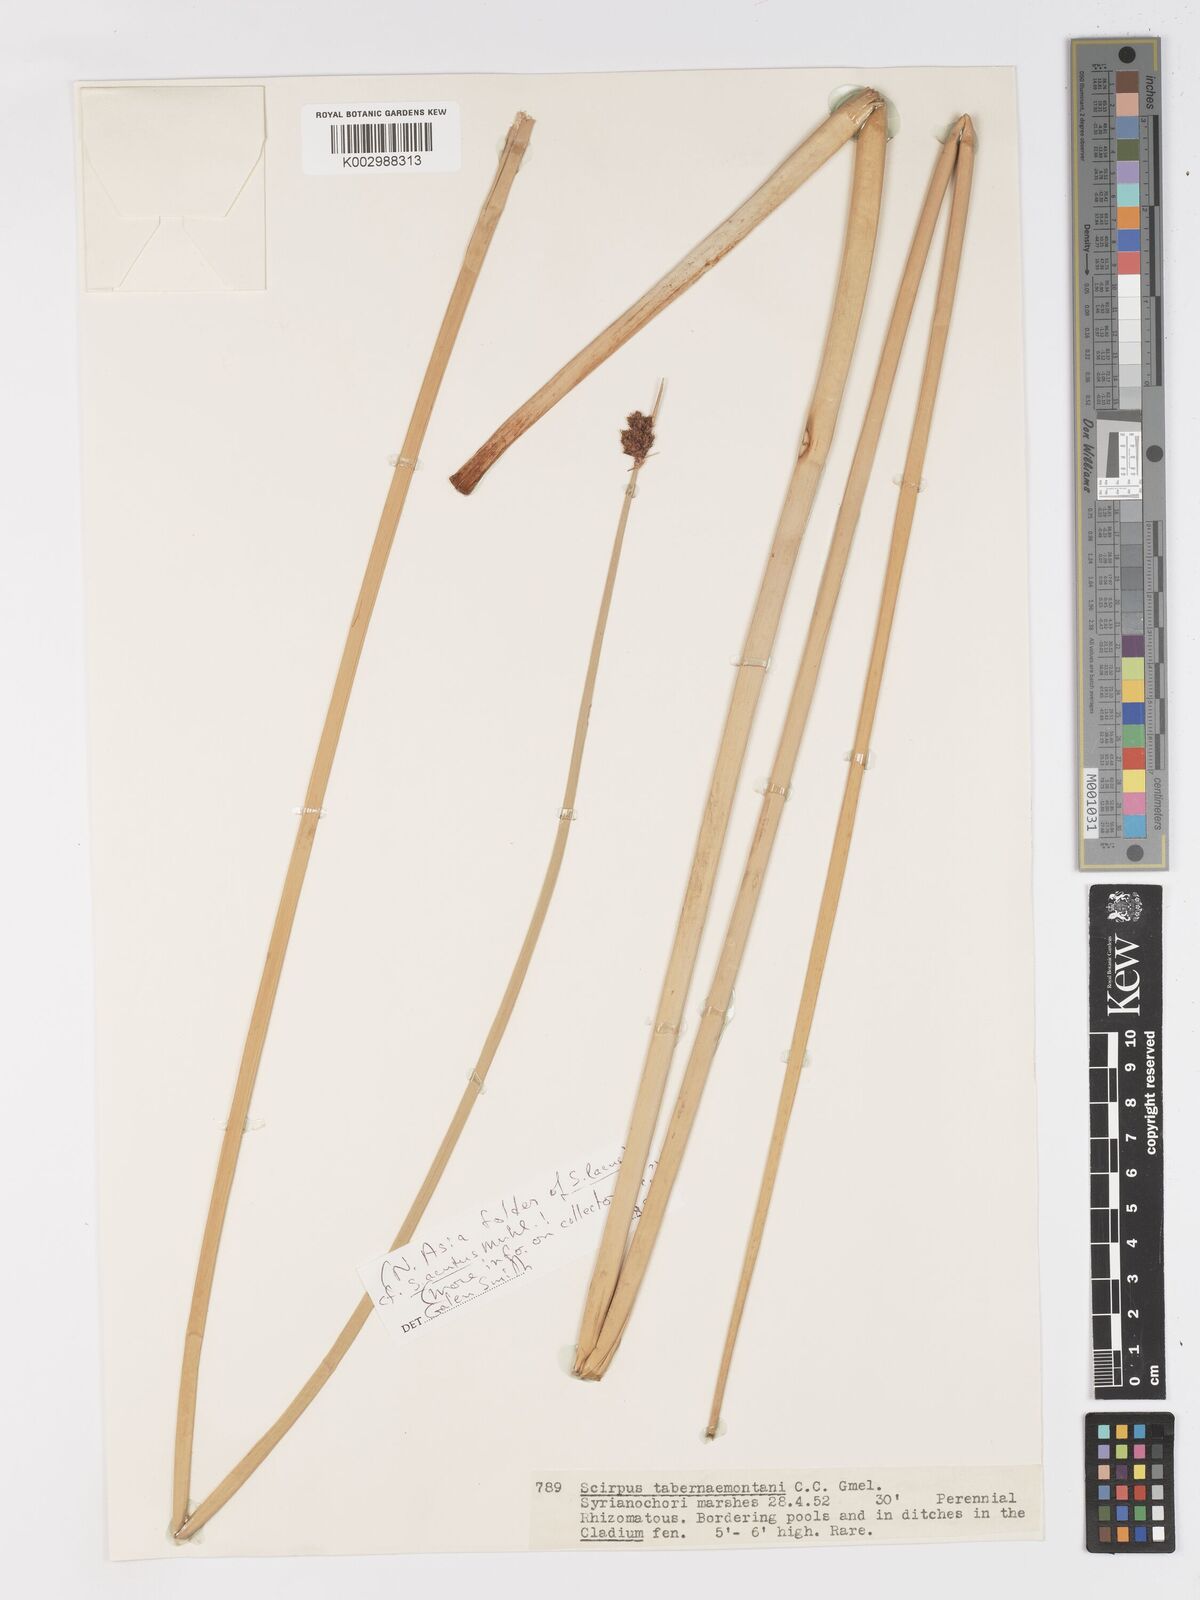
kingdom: Plantae
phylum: Tracheophyta
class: Liliopsida
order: Poales
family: Cyperaceae
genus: Schoenoplectus
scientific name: Schoenoplectus tabernaemontani
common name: Grey club-rush
